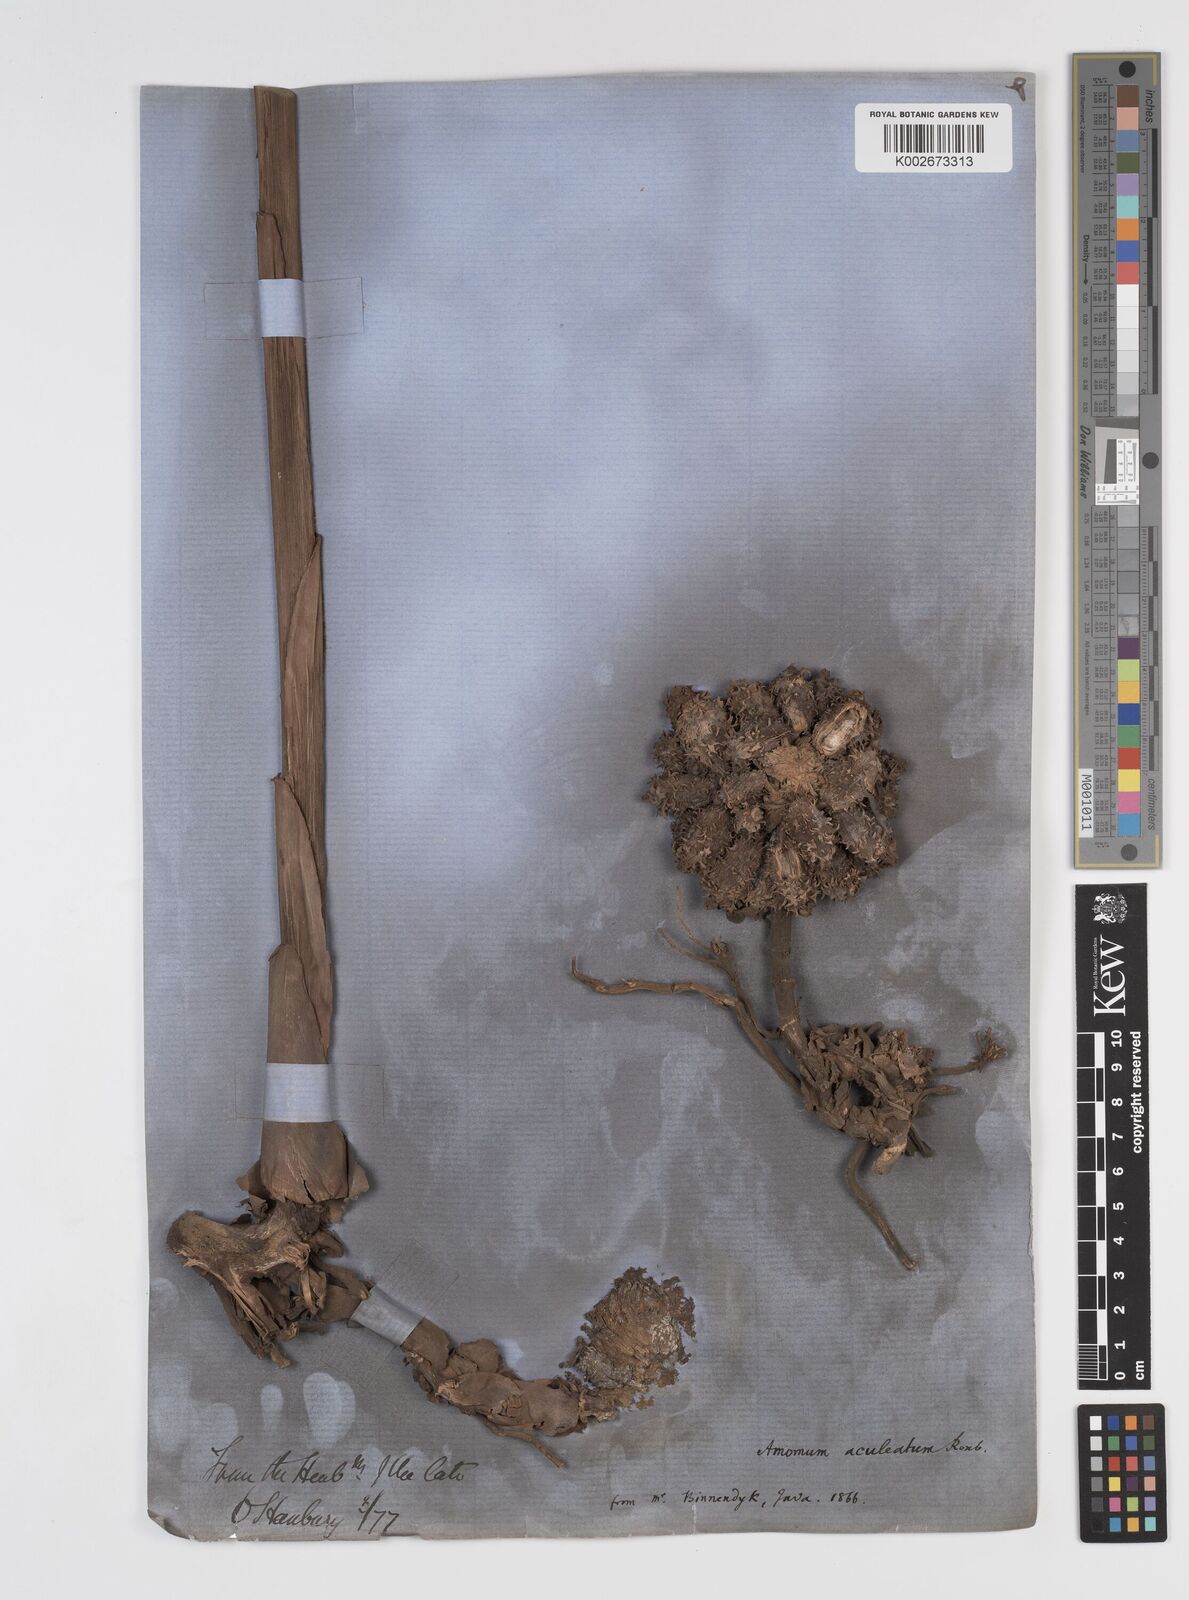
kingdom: Plantae
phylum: Tracheophyta
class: Liliopsida
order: Zingiberales
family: Zingiberaceae
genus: Meistera
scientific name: Meistera aculeata
